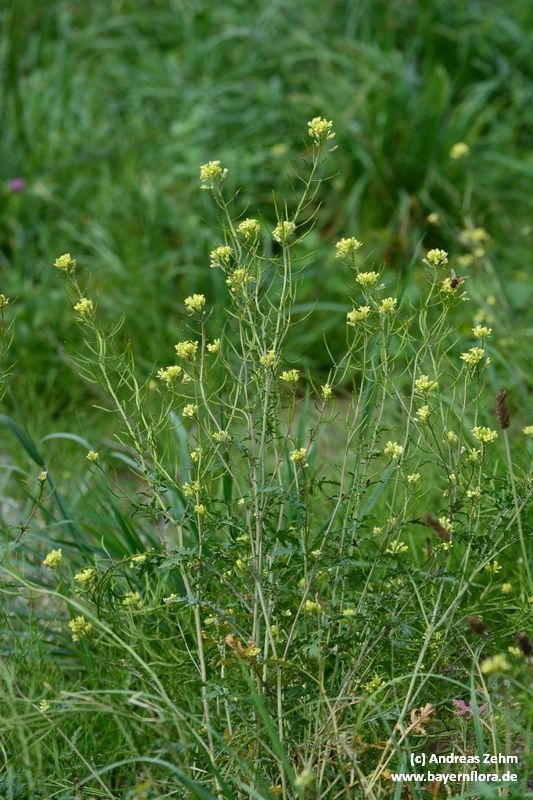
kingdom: Plantae
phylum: Tracheophyta
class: Magnoliopsida
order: Brassicales
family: Brassicaceae
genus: Erucastrum
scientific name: Erucastrum nasturtiifolium
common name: Watercress-leaf rocket
